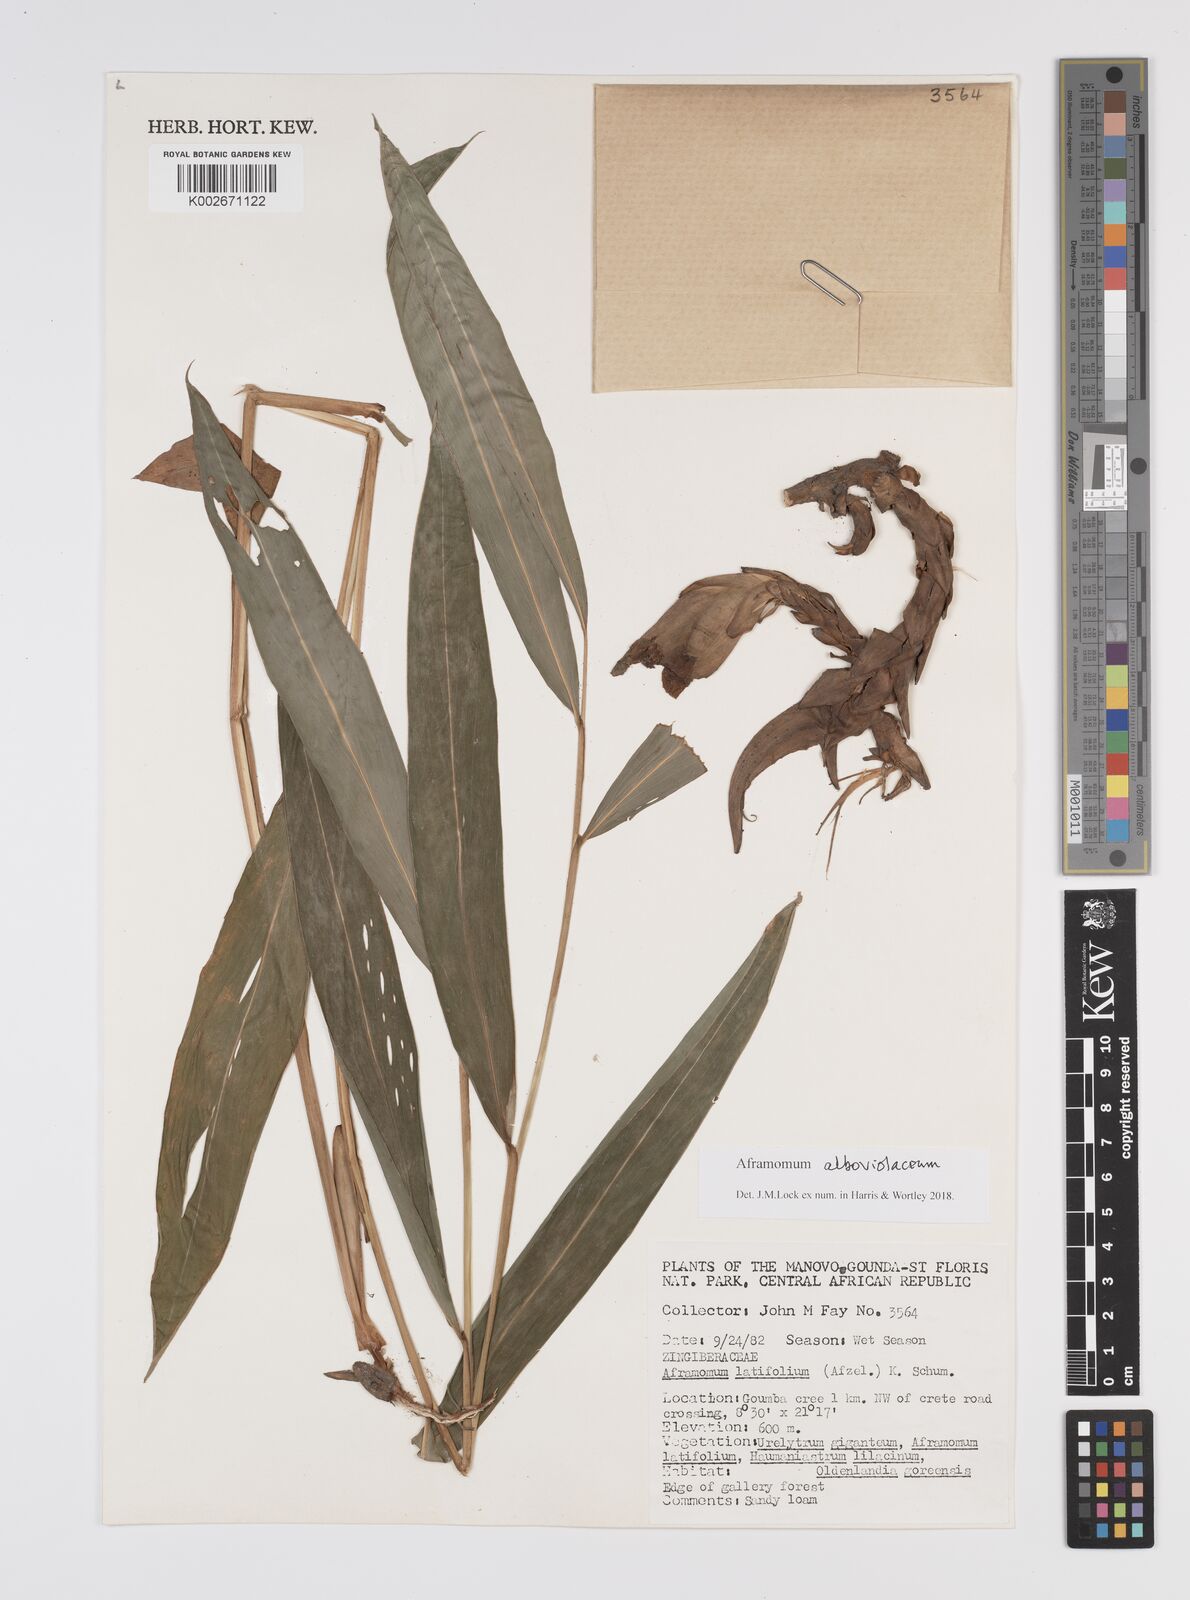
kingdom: Plantae
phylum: Tracheophyta
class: Liliopsida
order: Zingiberales
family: Zingiberaceae
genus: Aframomum
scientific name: Aframomum alboviolaceum
